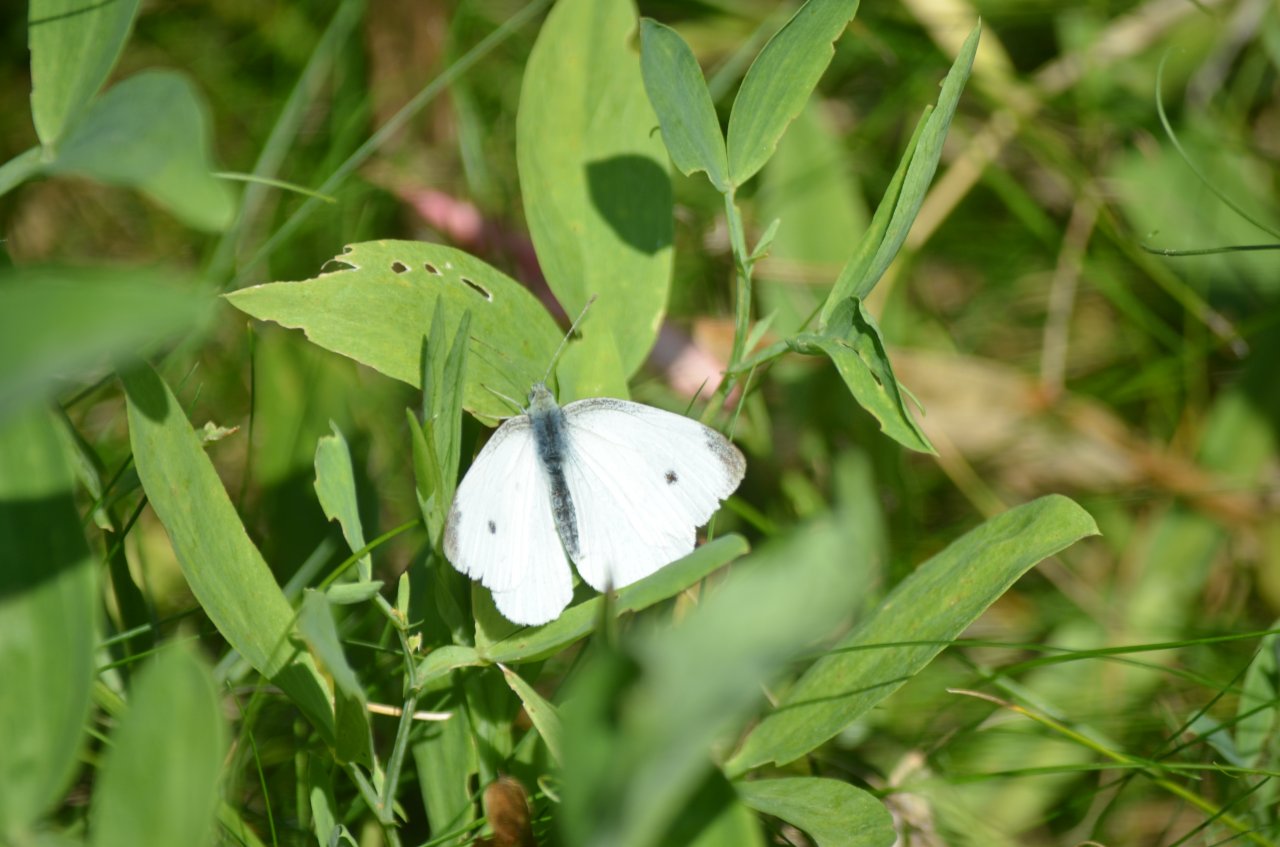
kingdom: Animalia
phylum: Arthropoda
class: Insecta
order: Lepidoptera
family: Pieridae
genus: Pieris
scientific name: Pieris rapae
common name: Cabbage White
